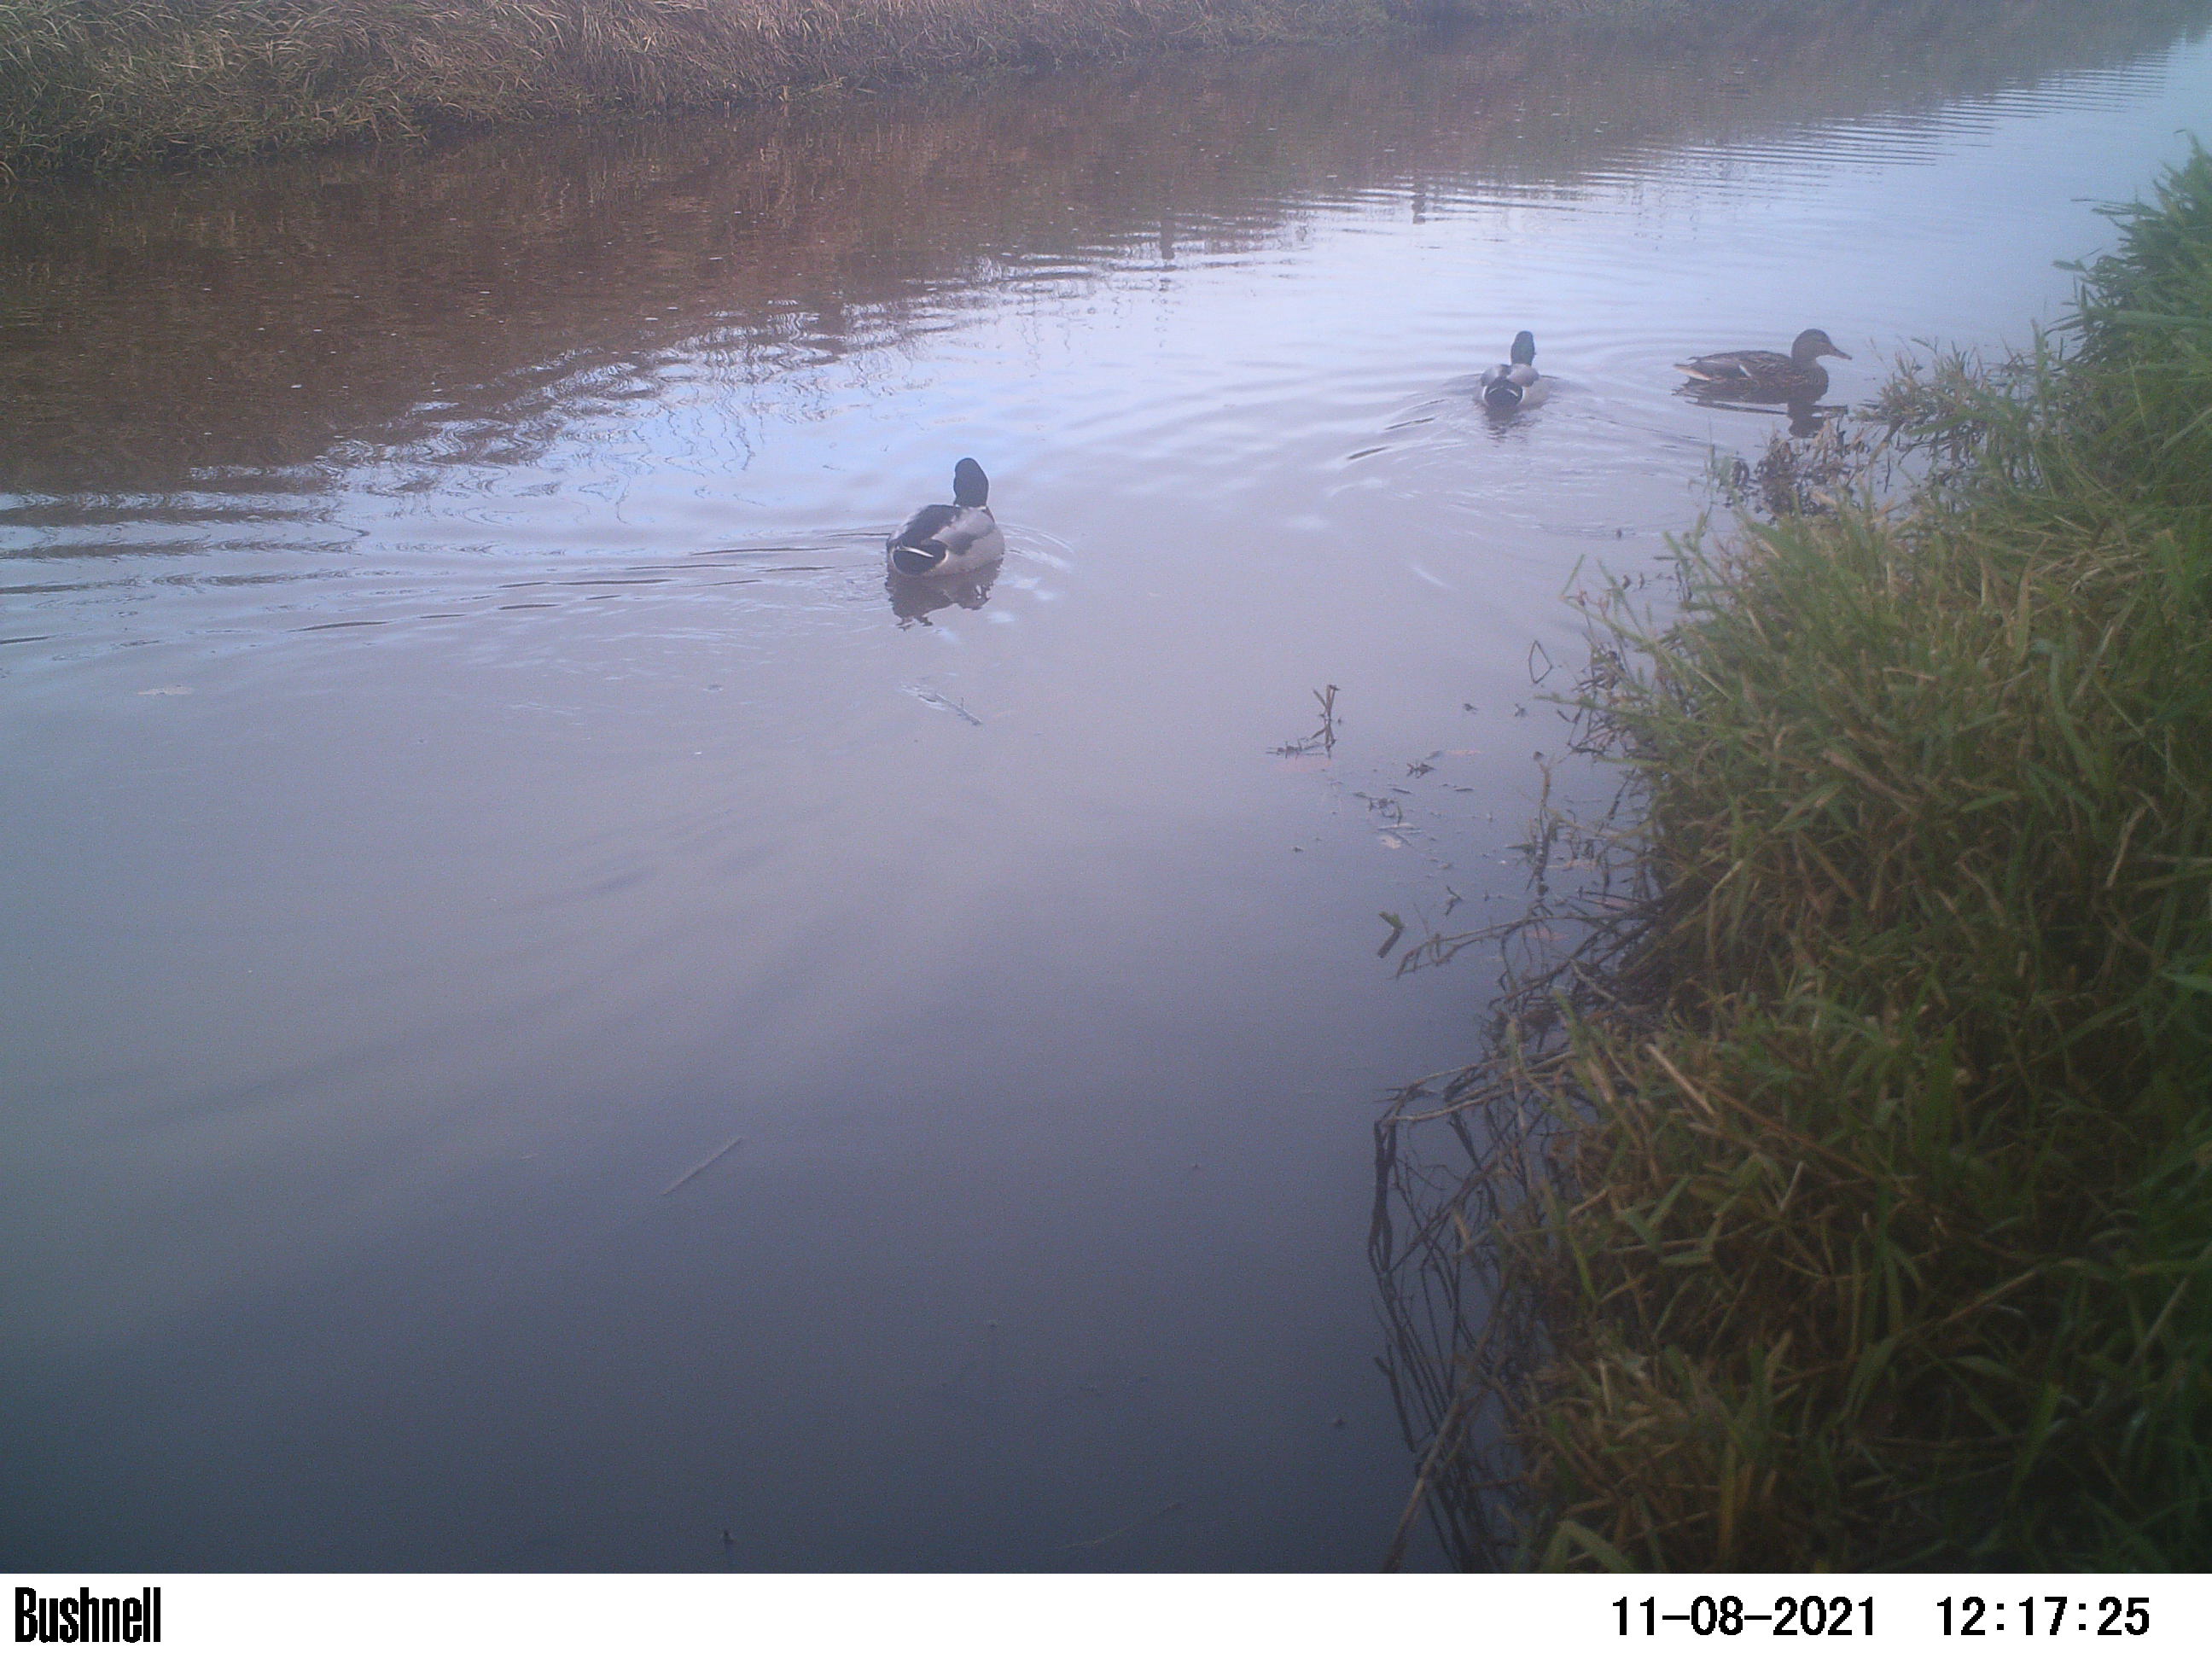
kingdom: Animalia
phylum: Chordata
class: Aves
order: Anseriformes
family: Anatidae
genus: Anas
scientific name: Anas
